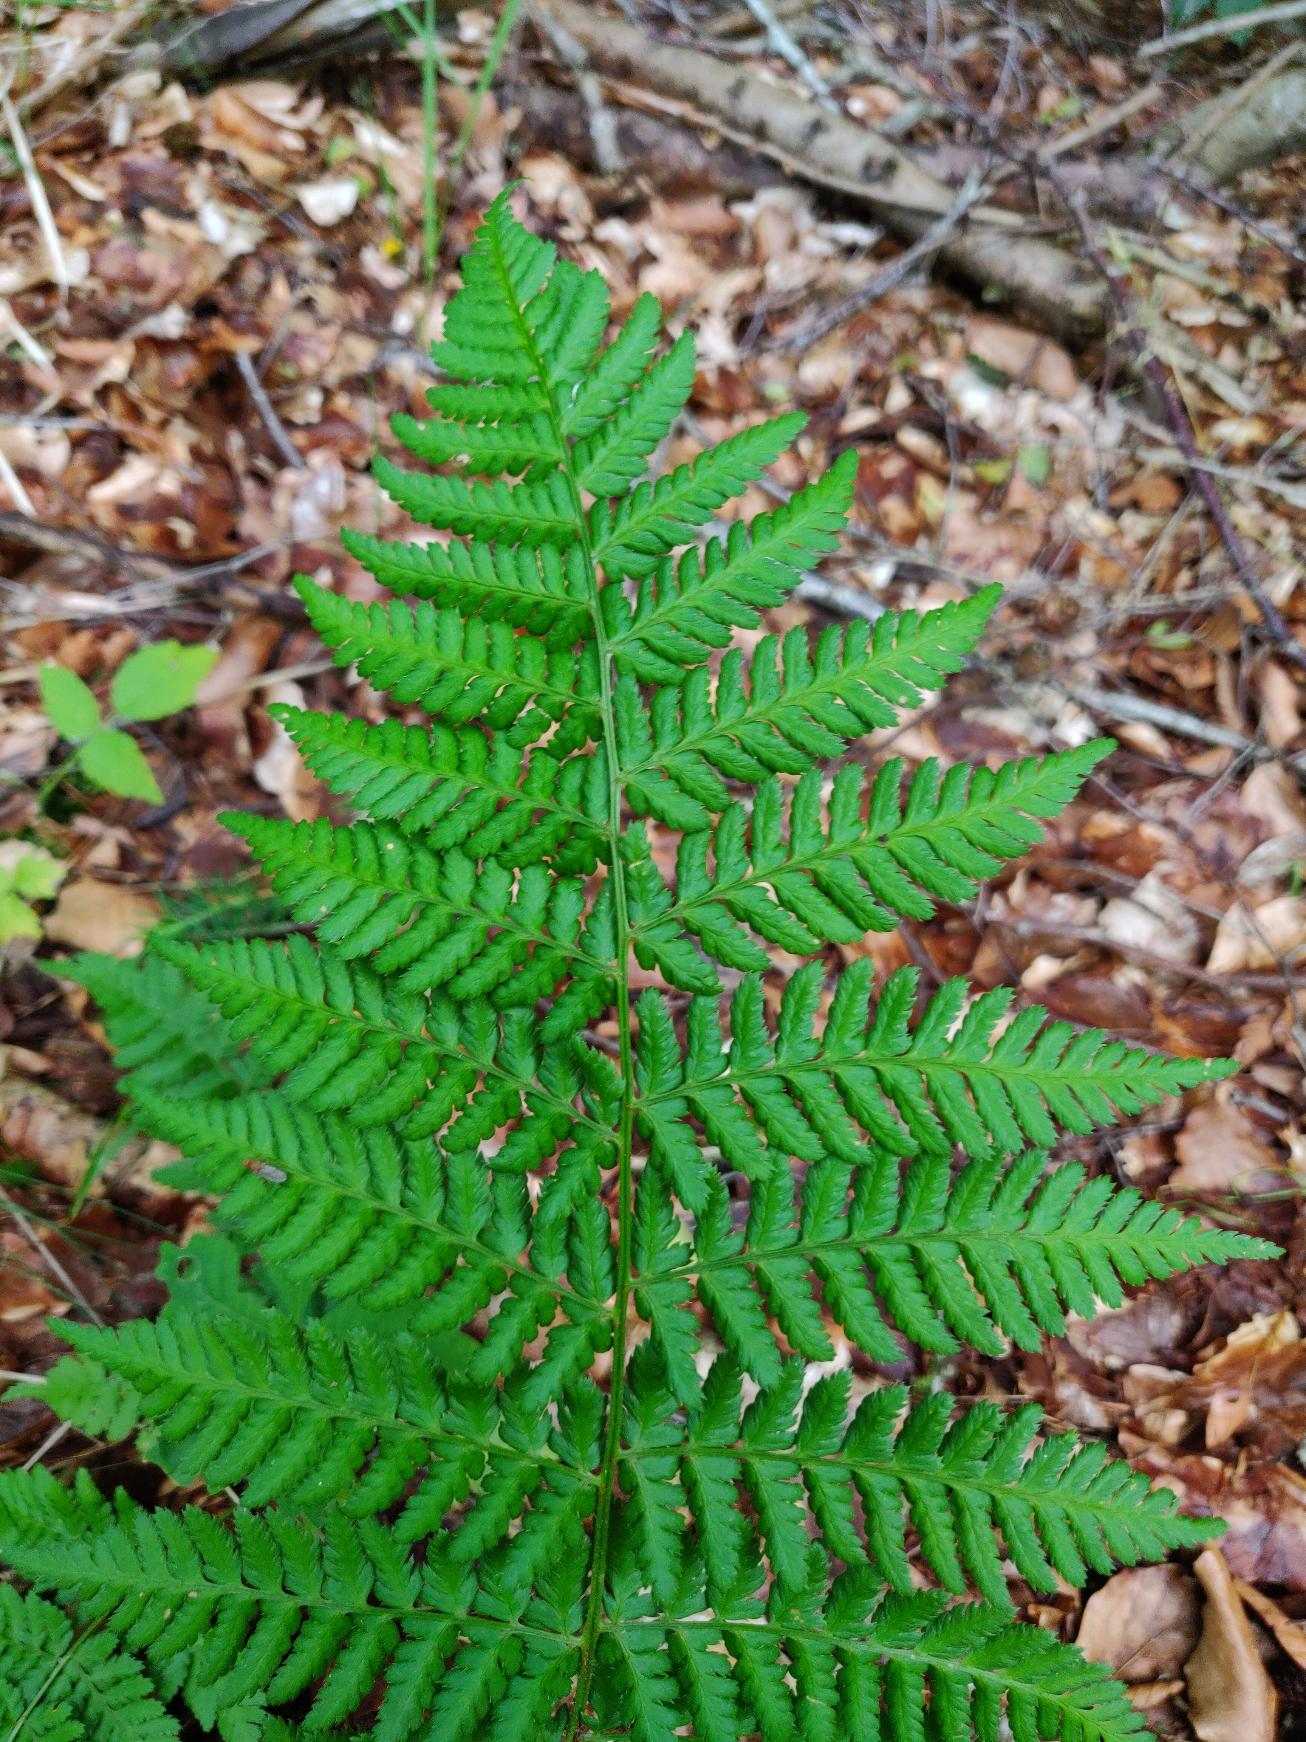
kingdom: Plantae
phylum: Tracheophyta
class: Polypodiopsida
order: Polypodiales
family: Dryopteridaceae
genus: Dryopteris
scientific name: Dryopteris dilatata
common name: Bredbladet mangeløv
